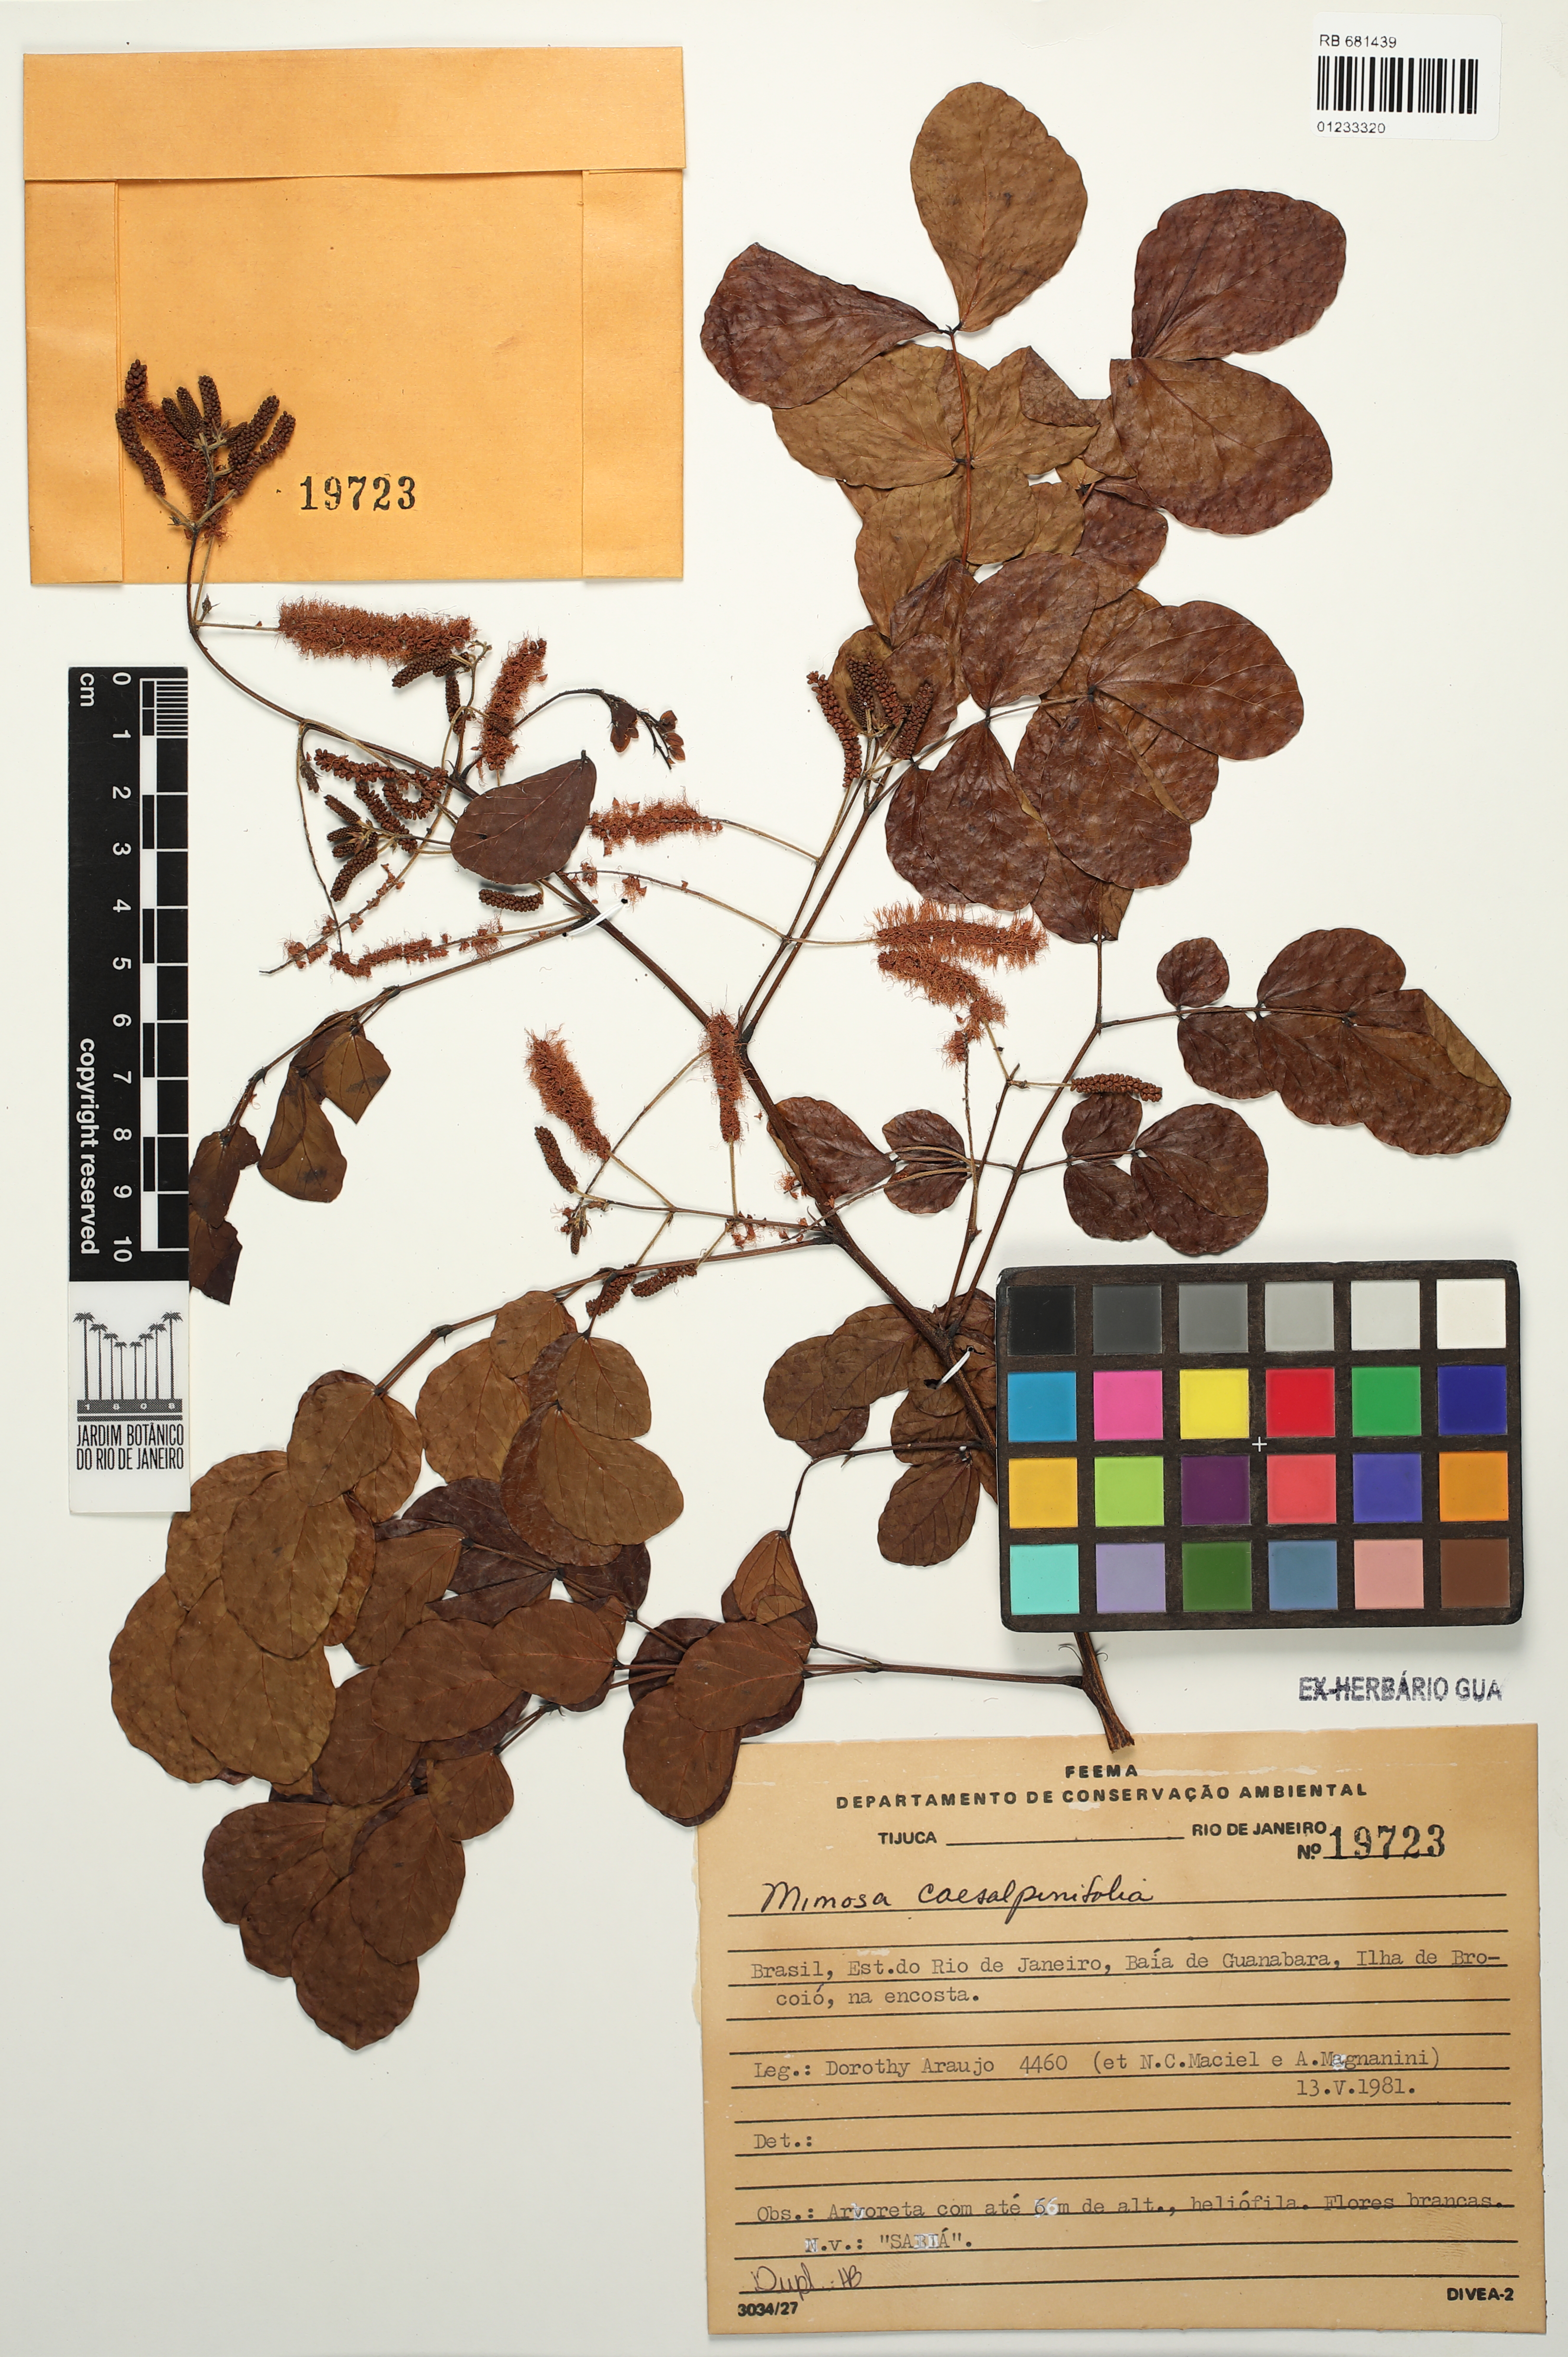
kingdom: Plantae
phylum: Tracheophyta
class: Magnoliopsida
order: Fabales
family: Fabaceae
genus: Mimosa
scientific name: Mimosa caesalpiniifolia
